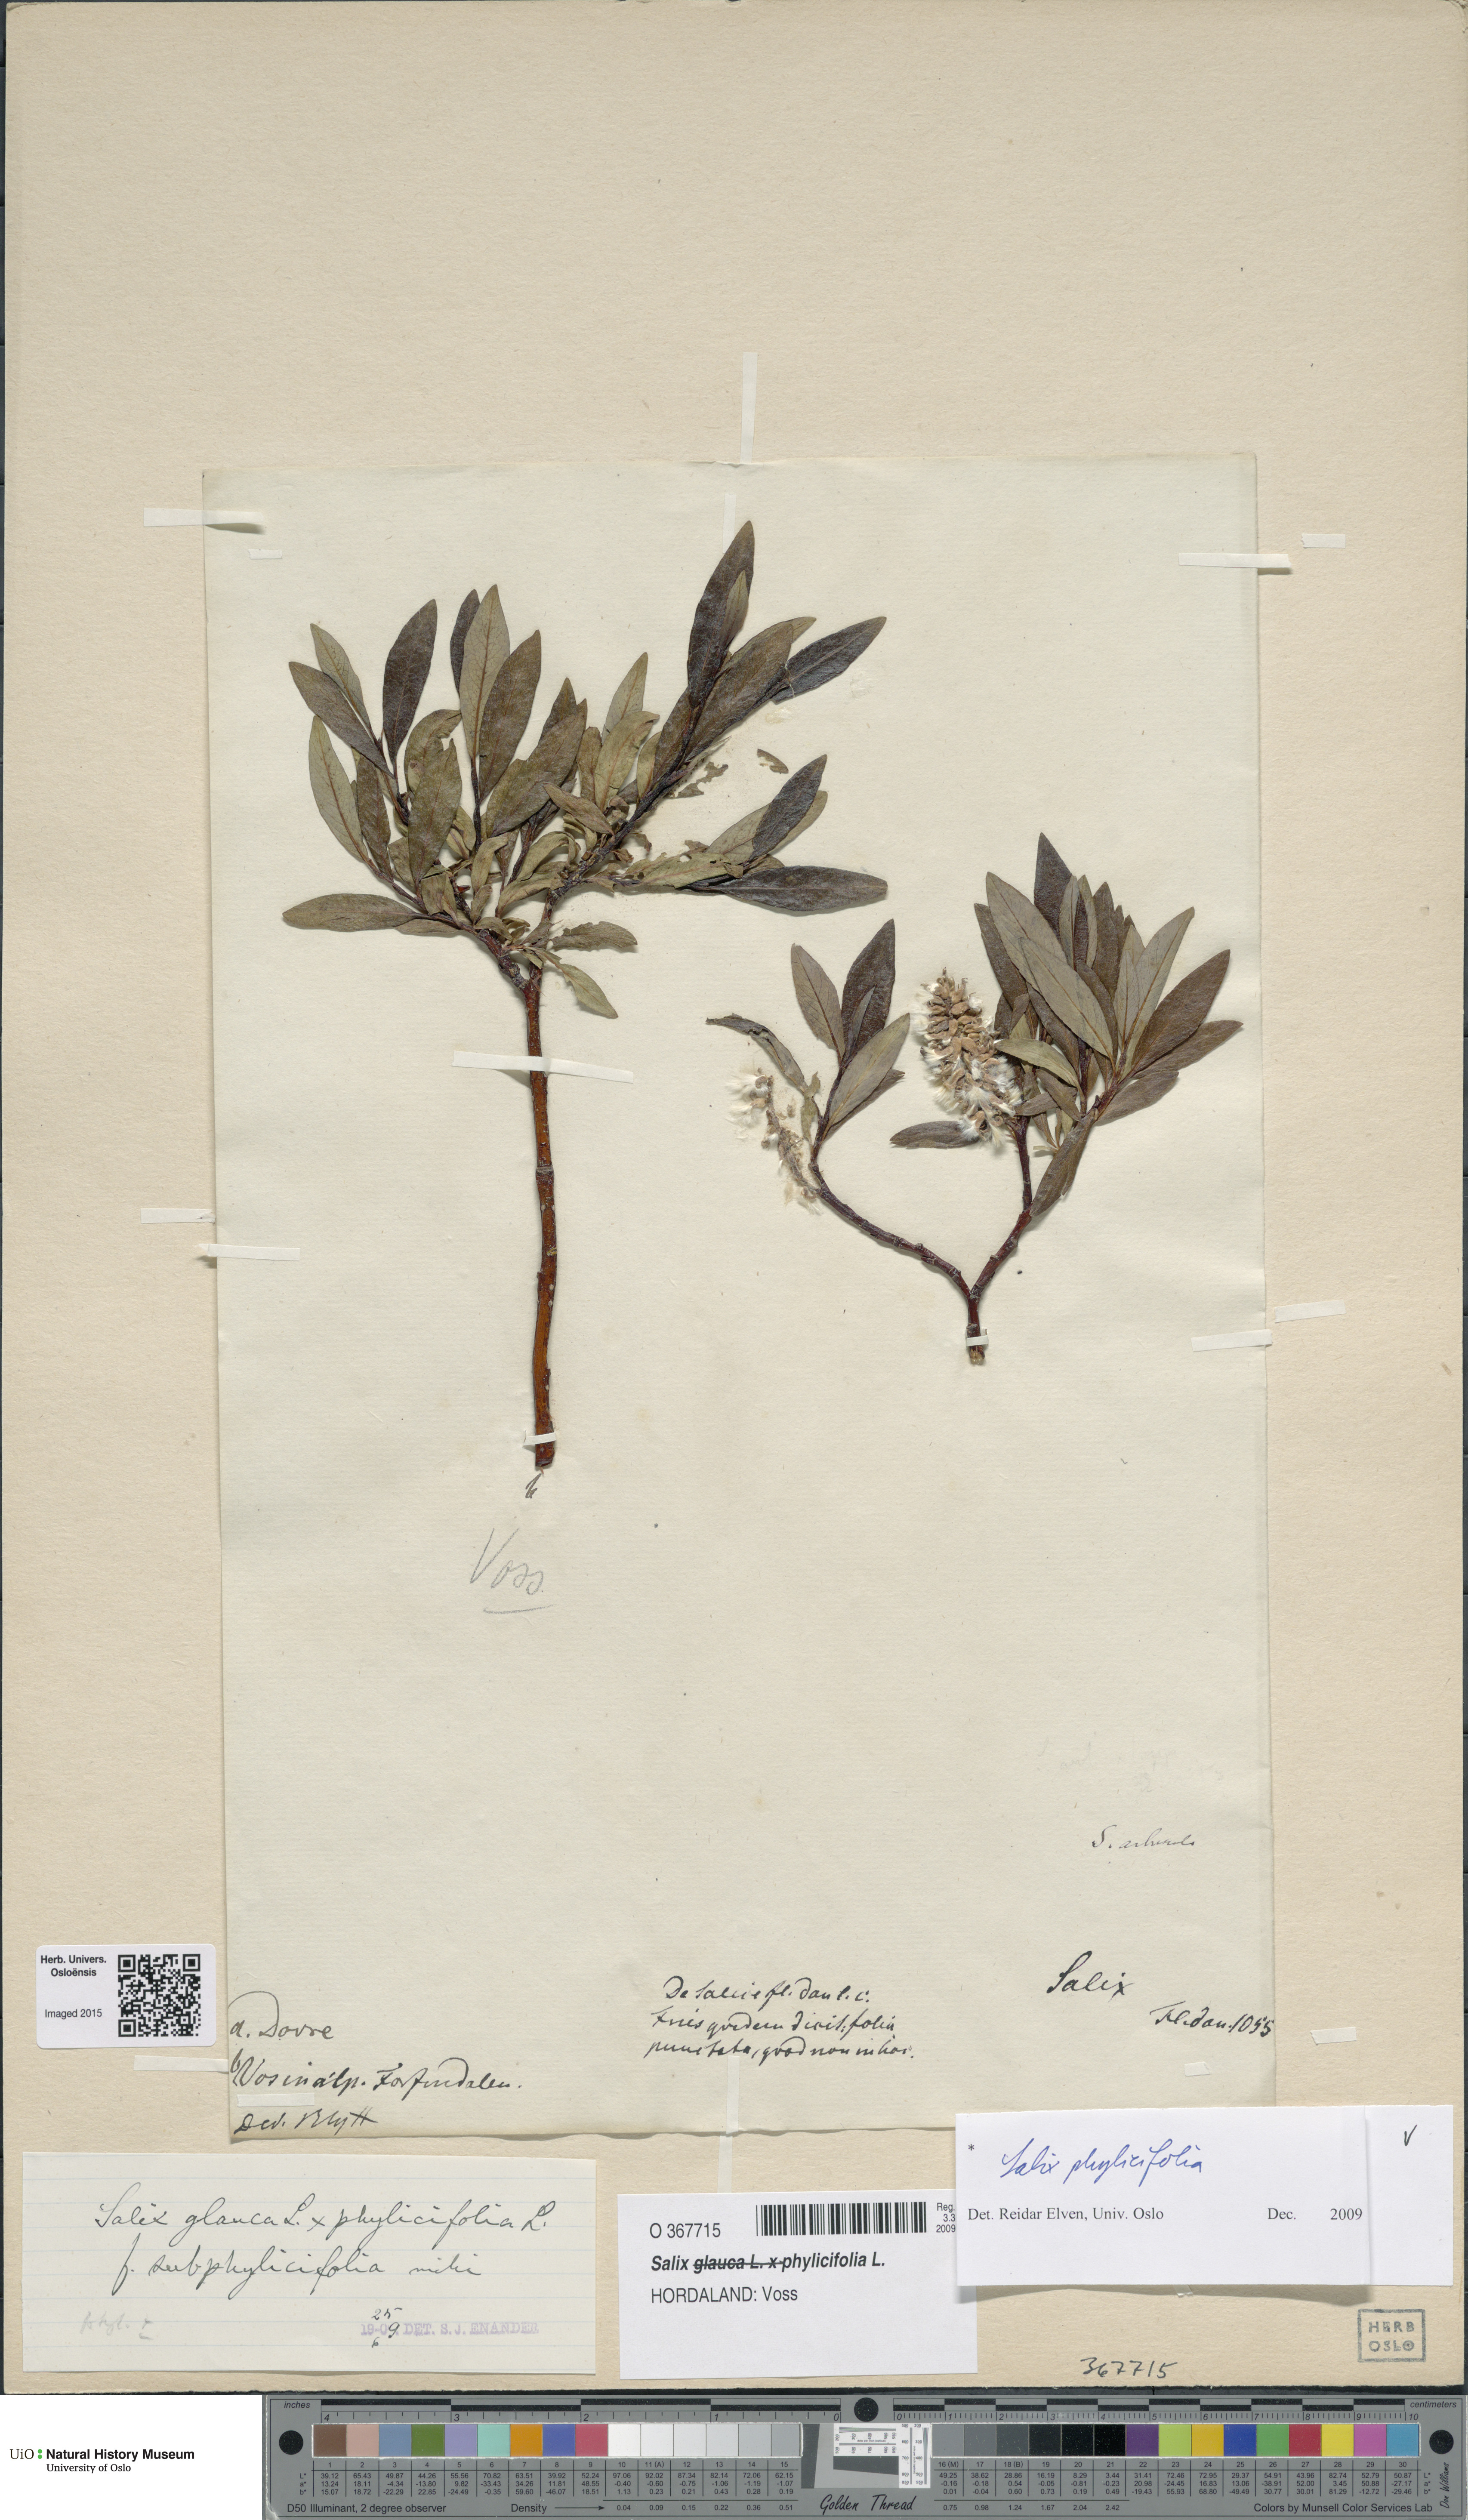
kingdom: Plantae
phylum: Tracheophyta
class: Magnoliopsida
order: Malpighiales
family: Salicaceae
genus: Salix
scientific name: Salix phylicifolia
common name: Tea-leaved willow
